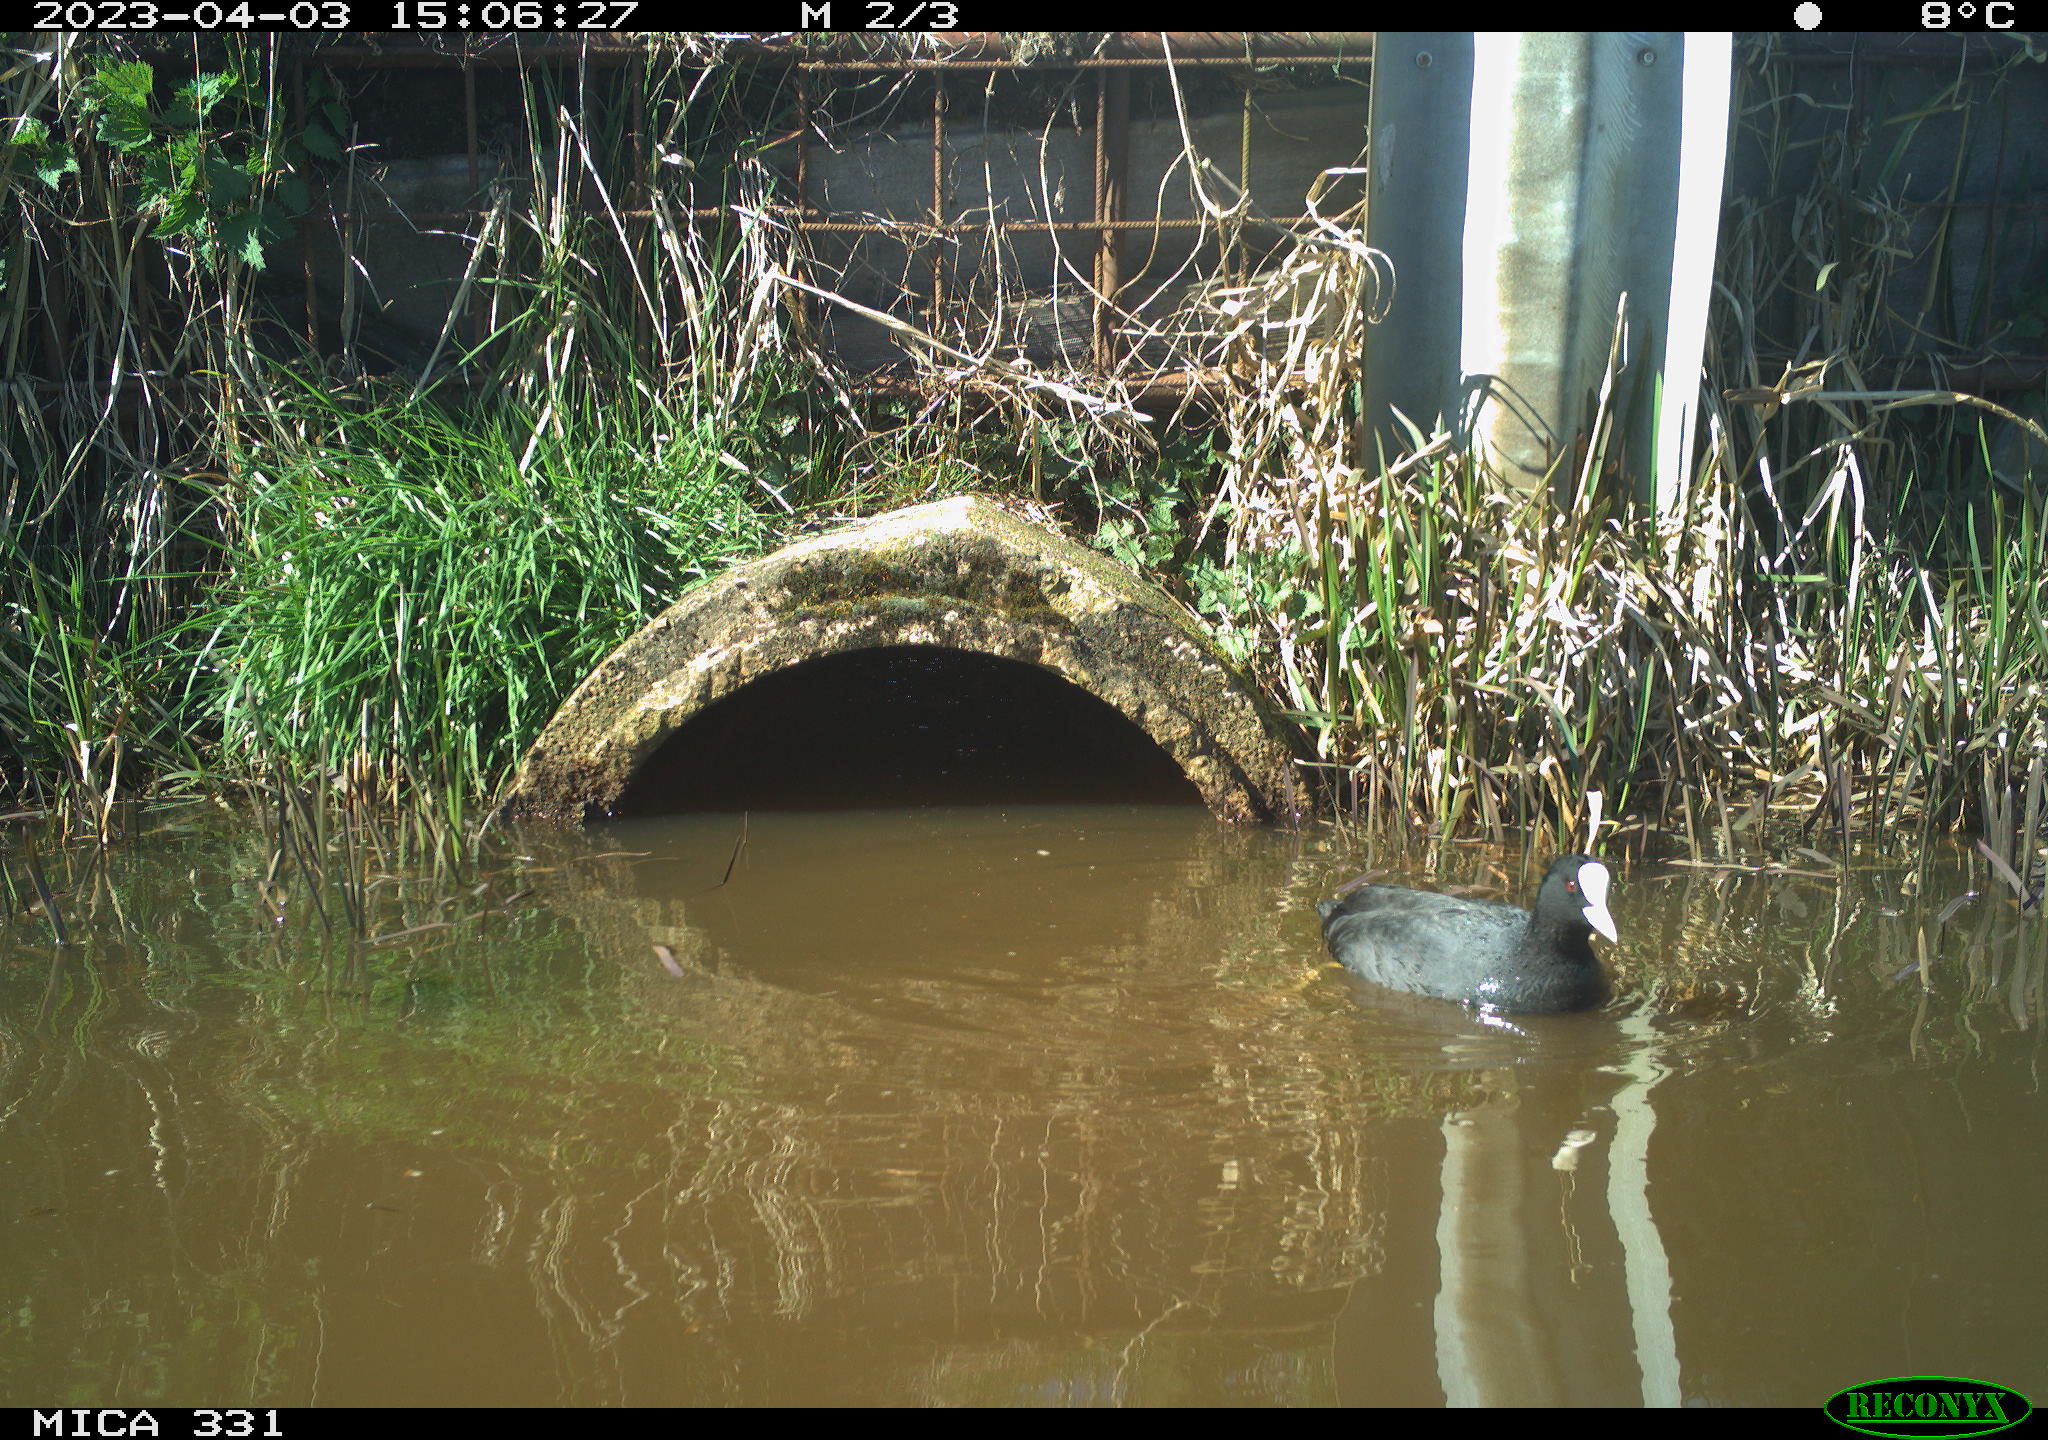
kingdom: Animalia
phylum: Chordata
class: Aves
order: Gruiformes
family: Rallidae
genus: Fulica
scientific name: Fulica atra
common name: Eurasian coot
